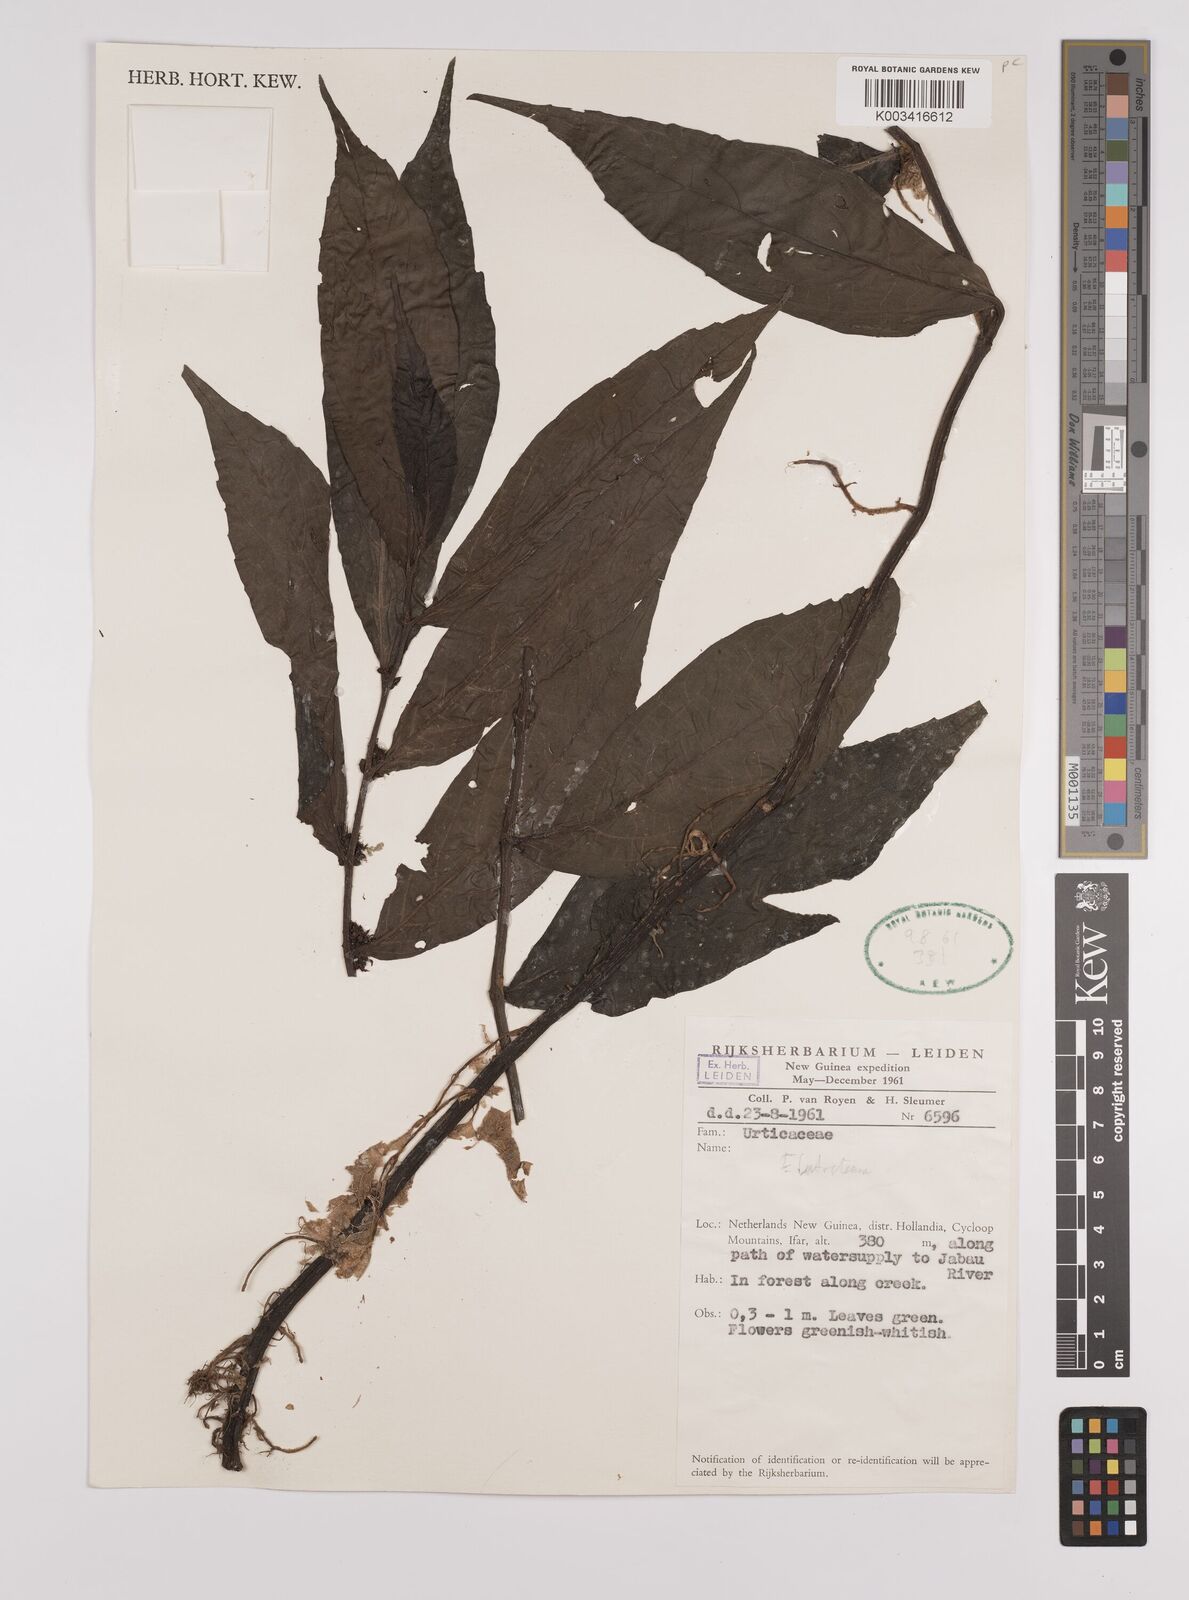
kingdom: Plantae
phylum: Tracheophyta
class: Magnoliopsida
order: Rosales
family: Urticaceae
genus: Elatostema
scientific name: Elatostema
